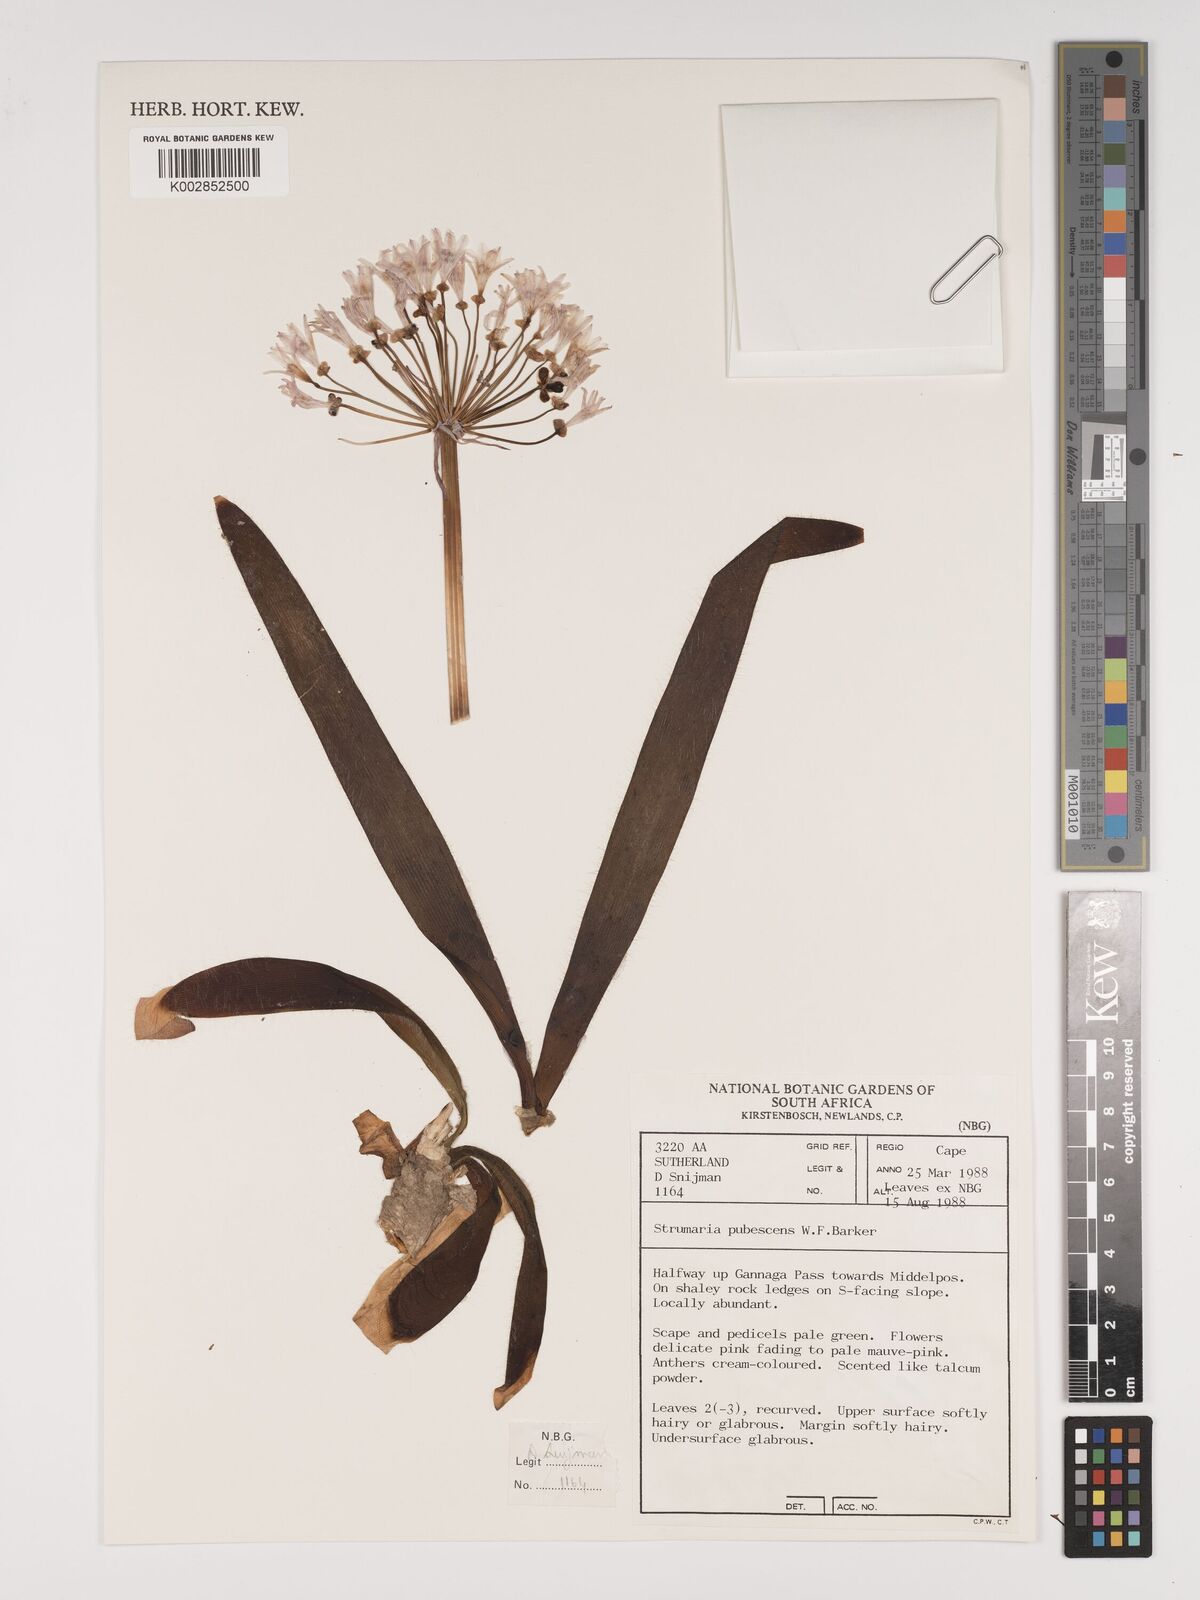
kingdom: Plantae
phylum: Tracheophyta
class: Liliopsida
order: Asparagales
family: Amaryllidaceae
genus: Strumaria
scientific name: Strumaria pubescens
